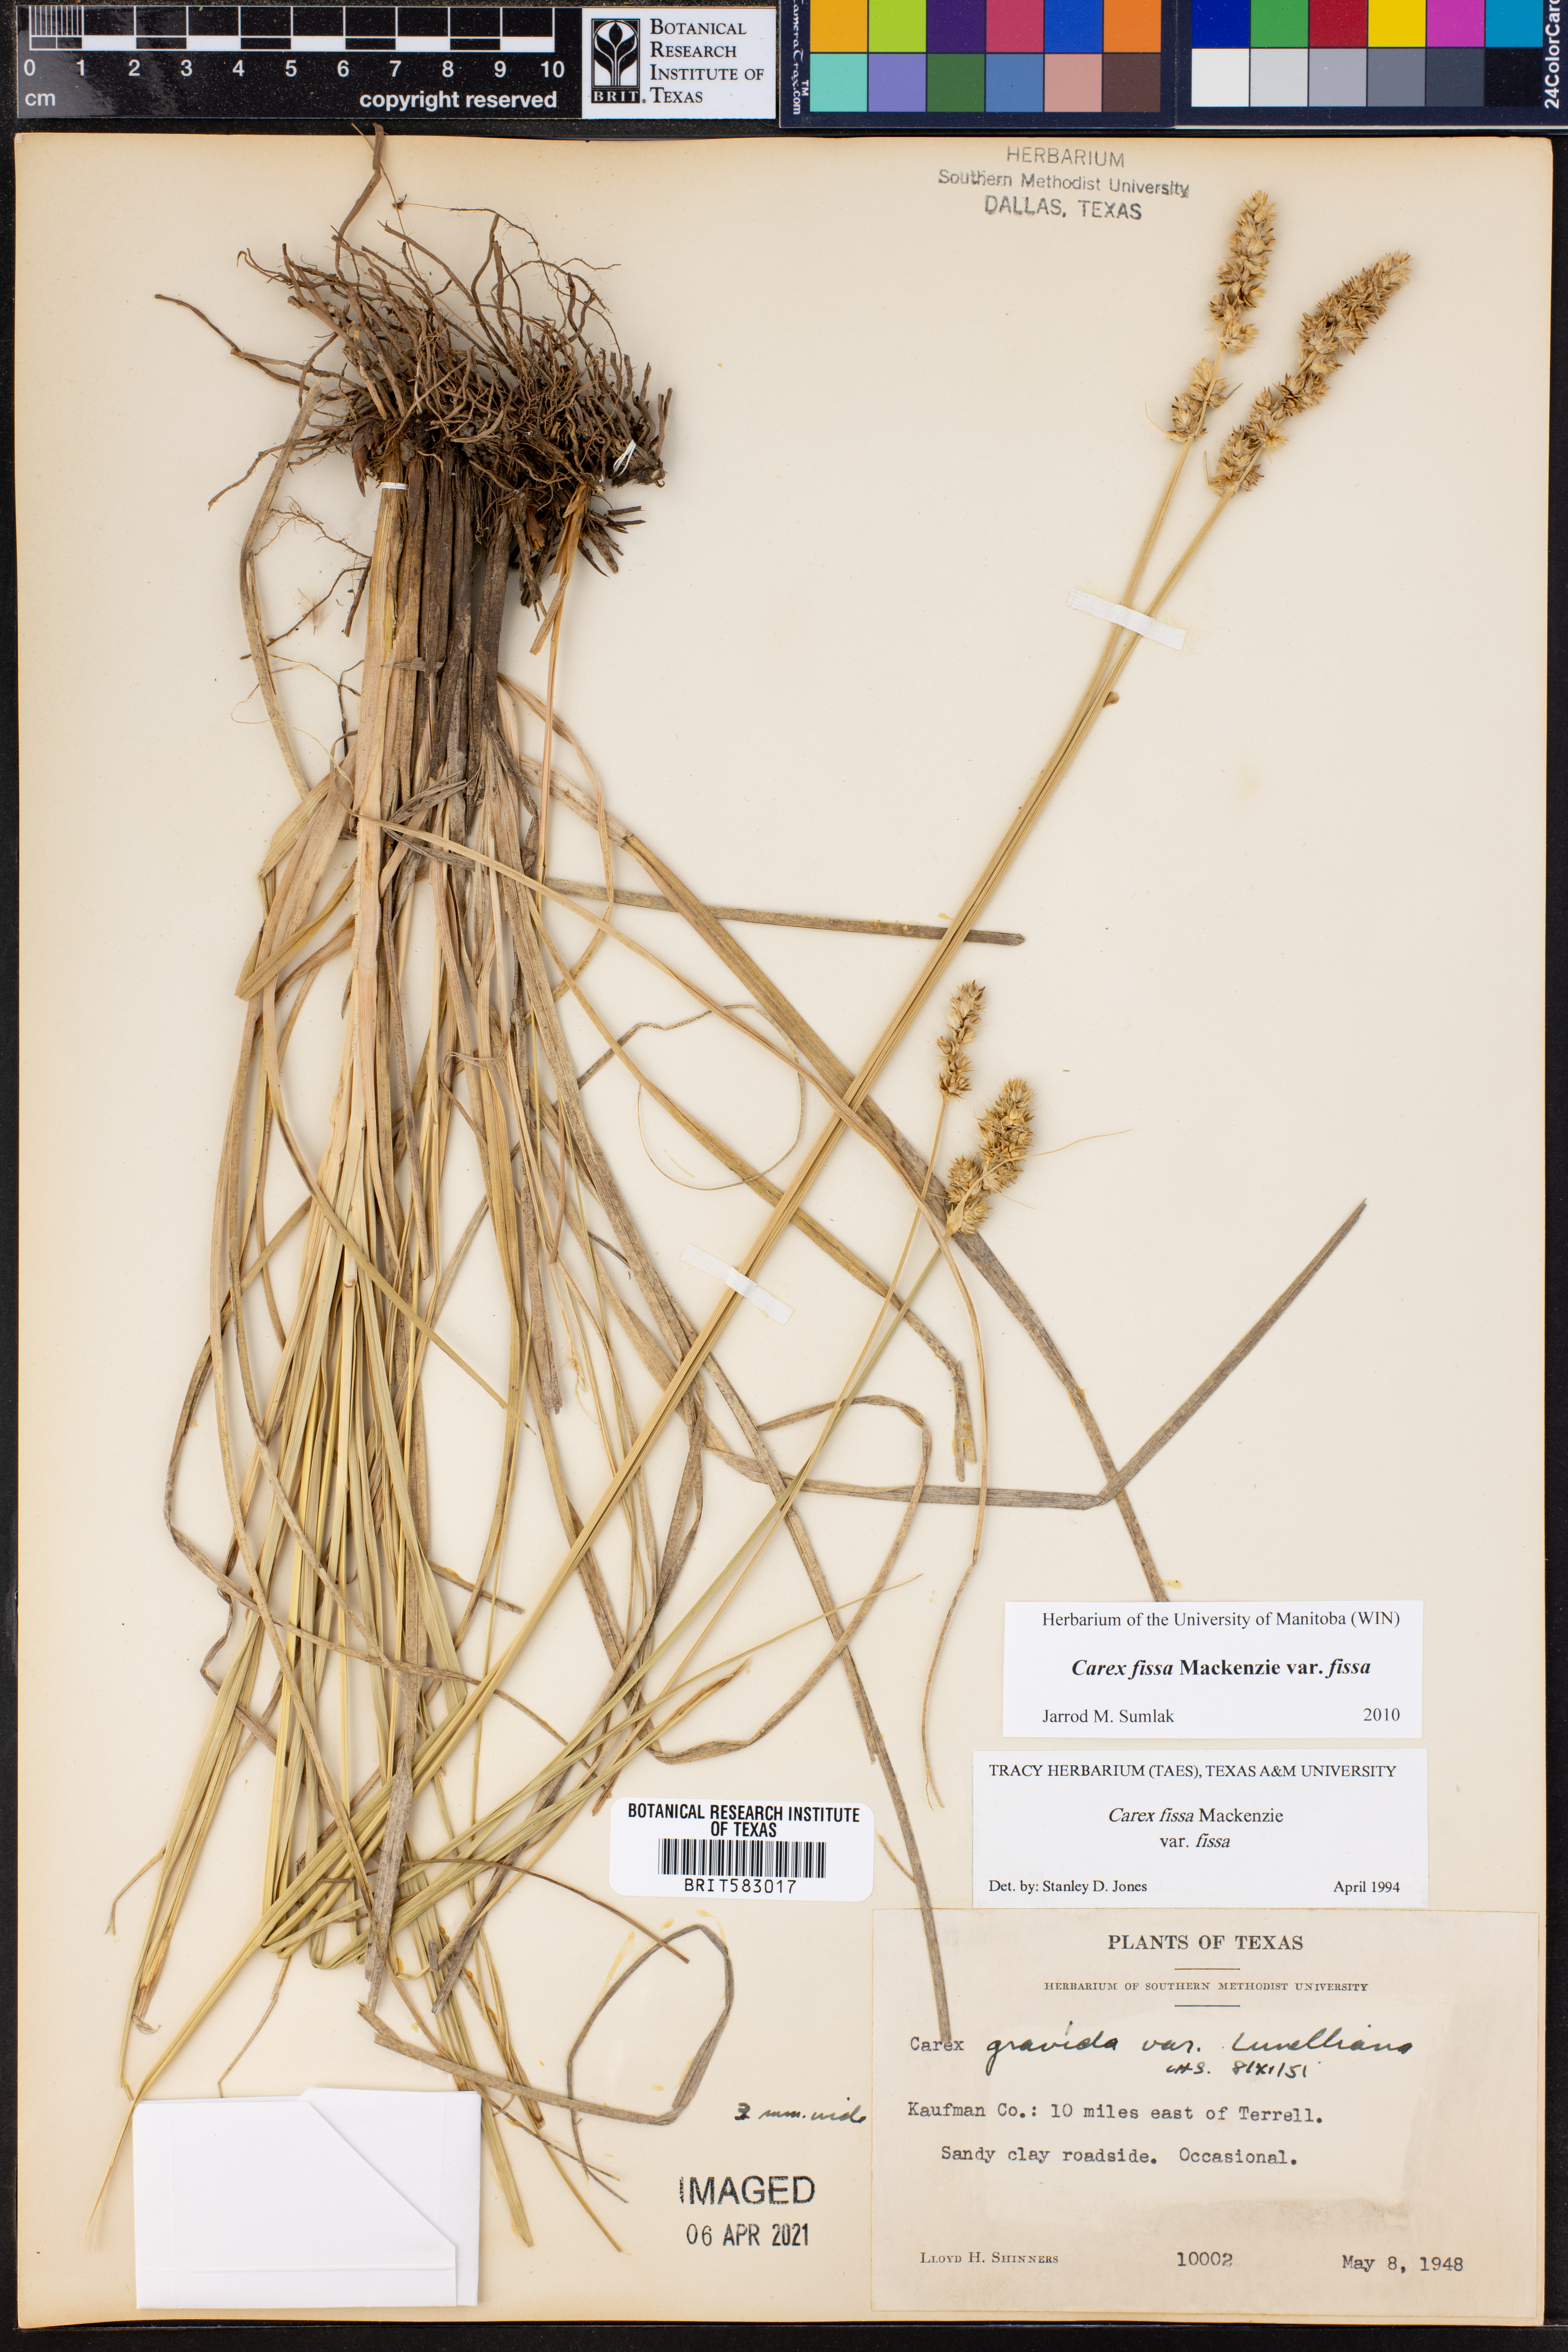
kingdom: Plantae
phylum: Tracheophyta
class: Liliopsida
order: Poales
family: Cyperaceae
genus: Carex
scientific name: Carex fissa
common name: Hammock sedge
